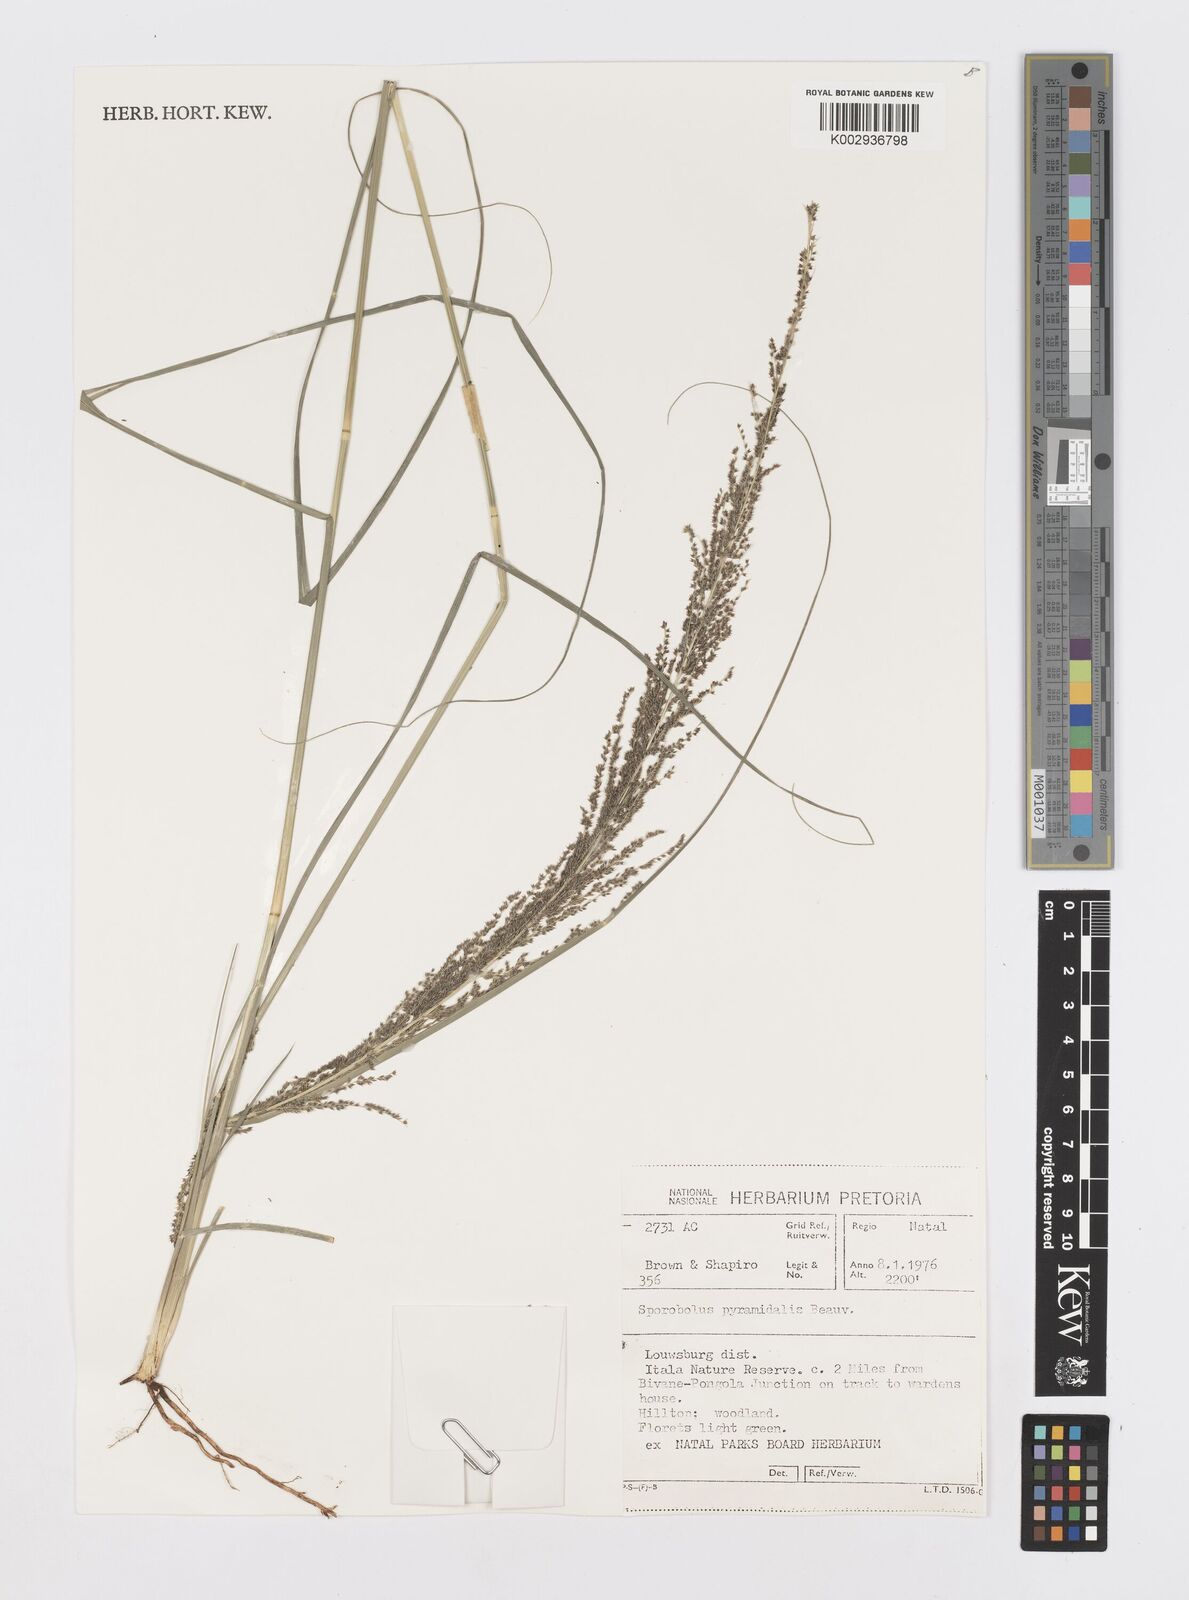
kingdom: Plantae
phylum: Tracheophyta
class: Liliopsida
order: Poales
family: Poaceae
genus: Sporobolus
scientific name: Sporobolus pyramidalis
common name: West indian dropseed
